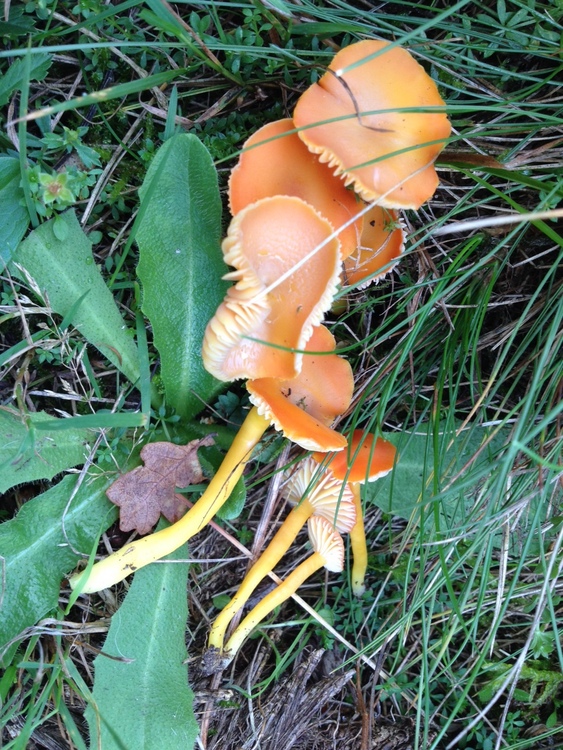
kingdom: Fungi
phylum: Basidiomycota
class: Agaricomycetes
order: Agaricales
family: Hygrophoraceae
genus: Hygrocybe
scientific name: Hygrocybe reidii
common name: honning-vokshat
